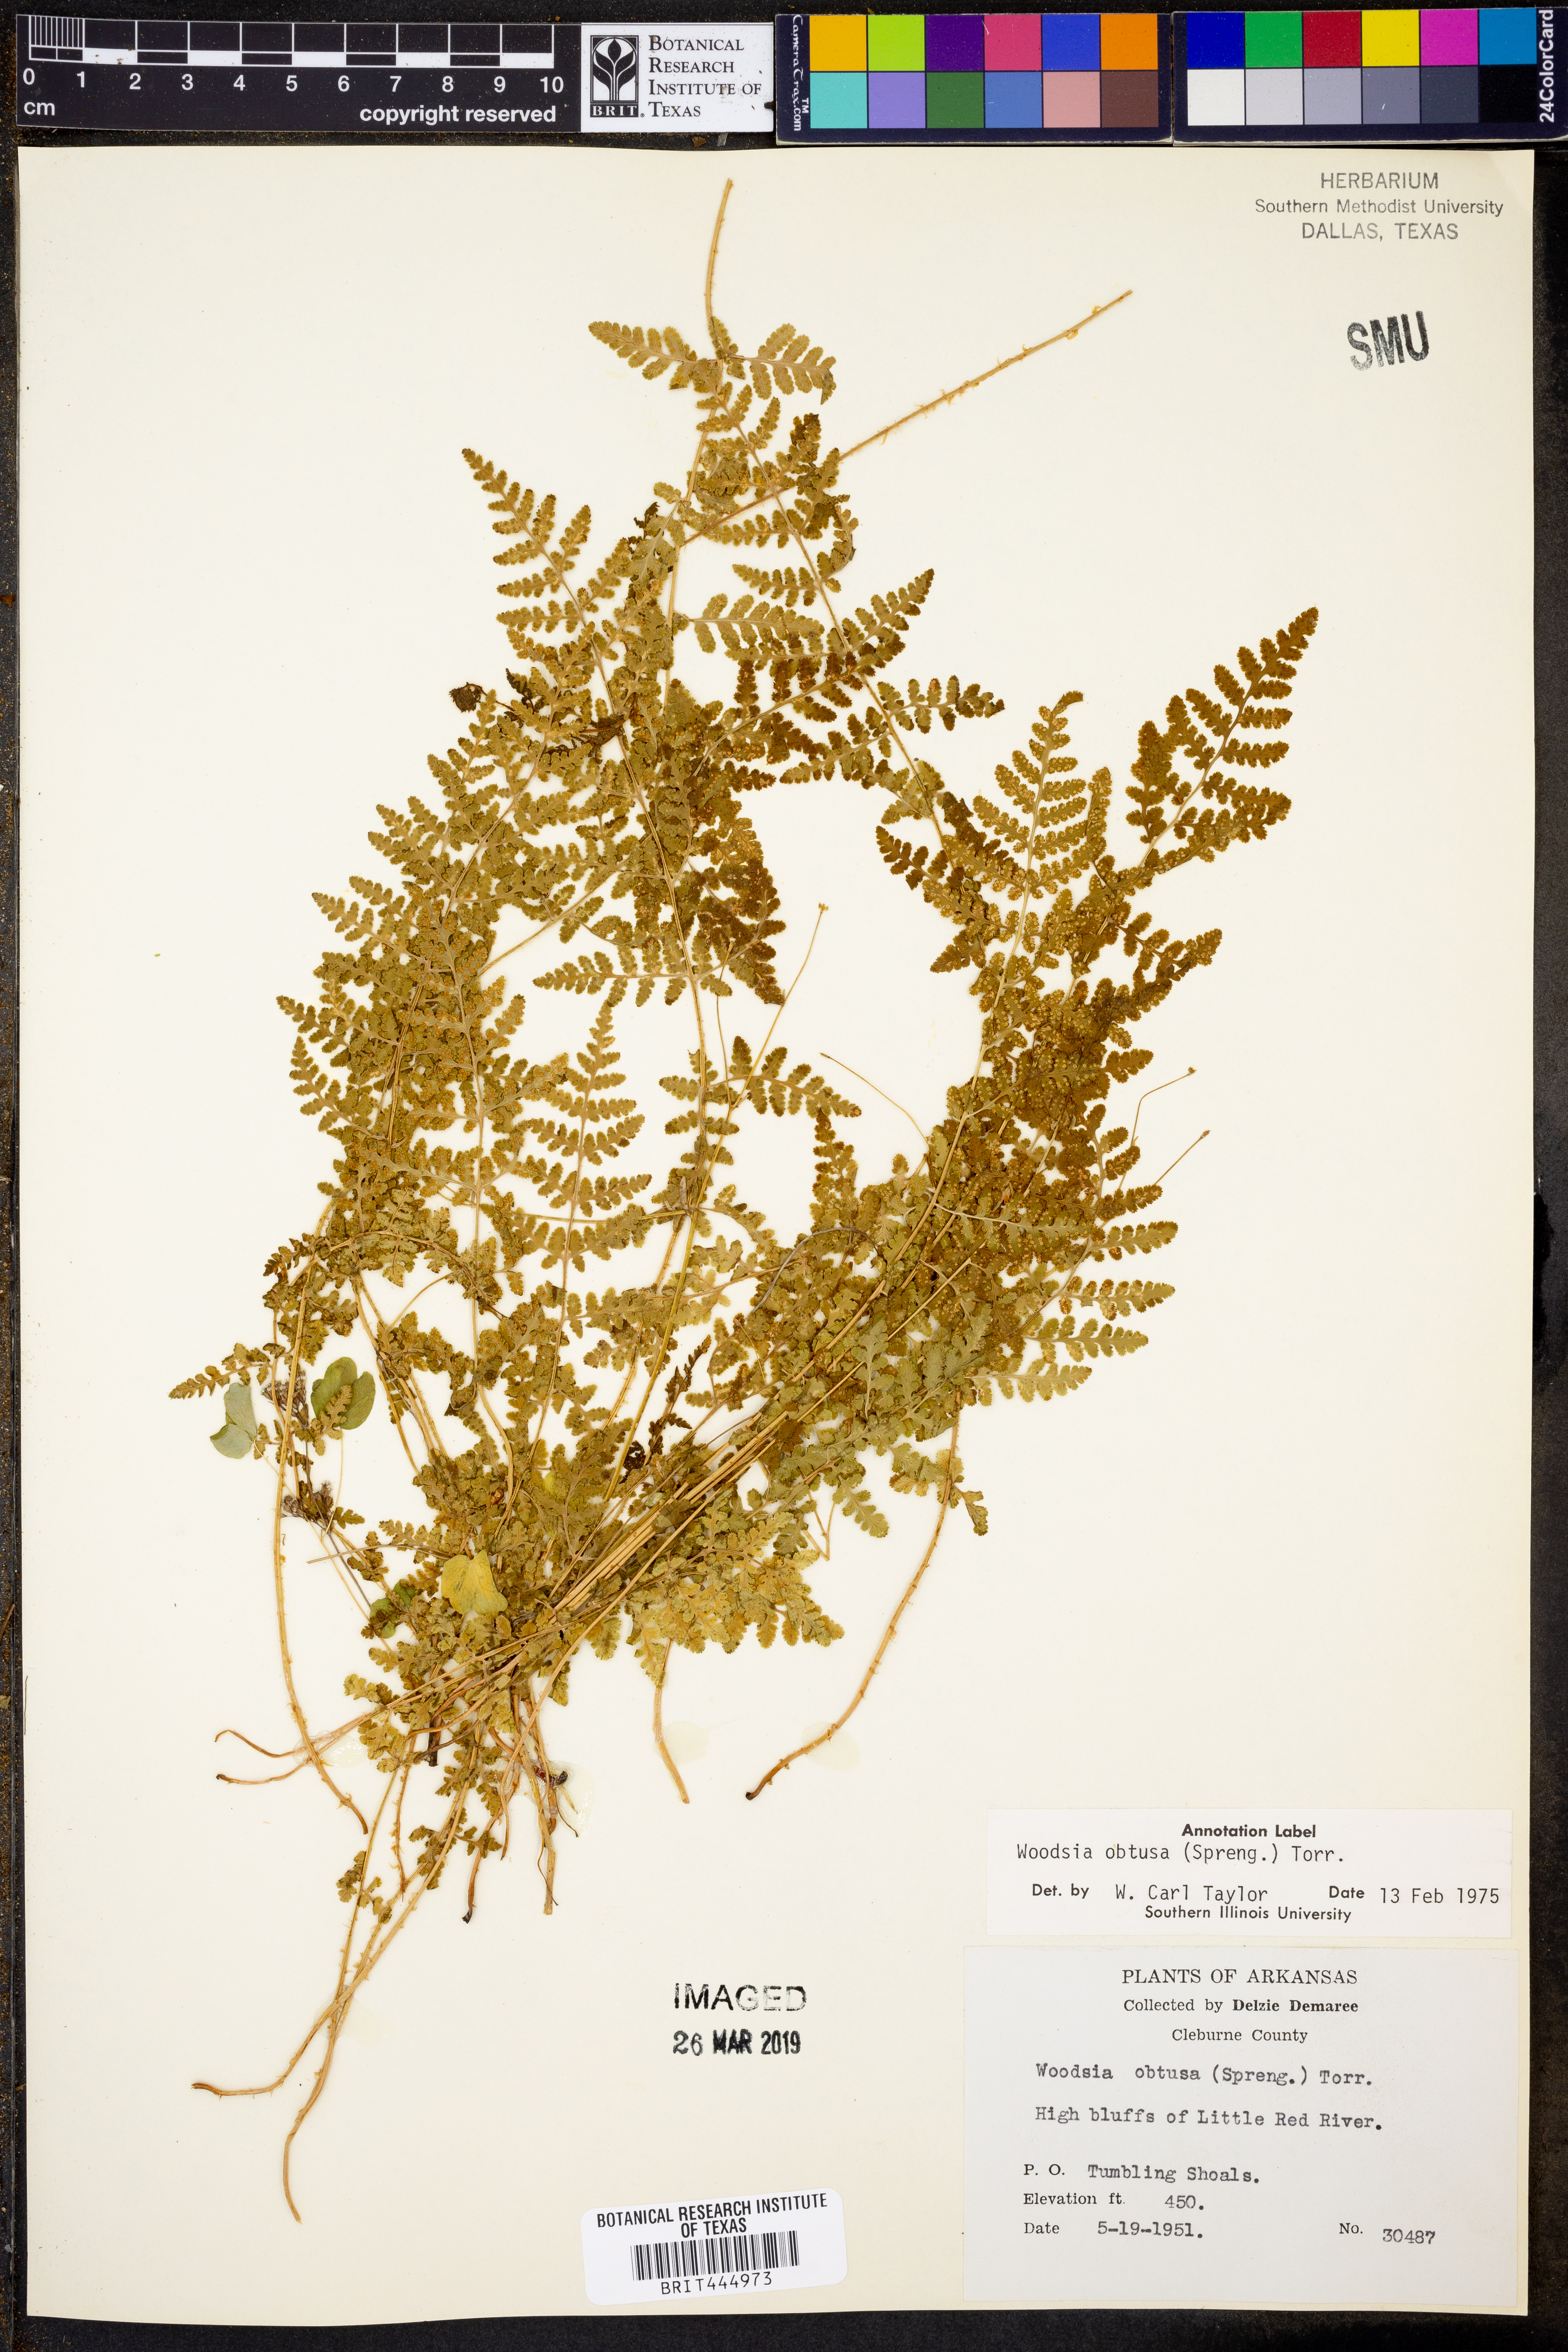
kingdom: Plantae
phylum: Tracheophyta
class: Polypodiopsida
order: Polypodiales
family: Woodsiaceae
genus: Physematium
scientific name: Physematium obtusum
